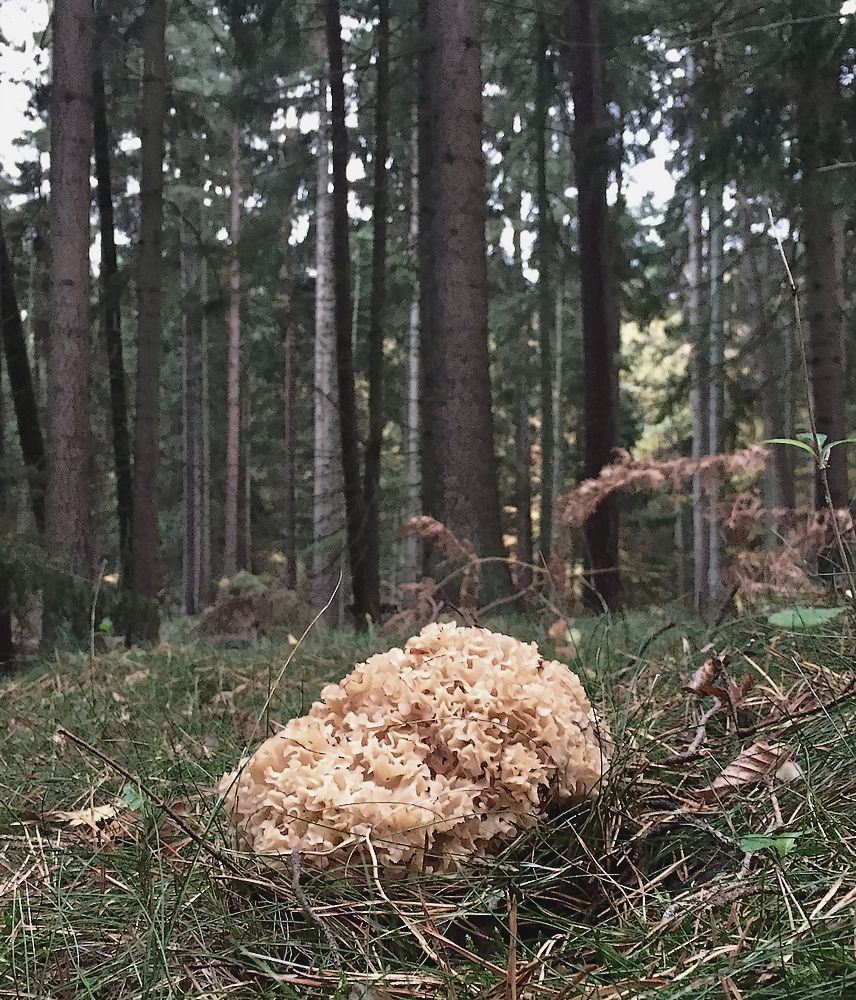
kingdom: Fungi
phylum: Basidiomycota
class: Agaricomycetes
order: Polyporales
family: Sparassidaceae
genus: Sparassis
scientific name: Sparassis crispa
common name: kruset blomkålssvamp
